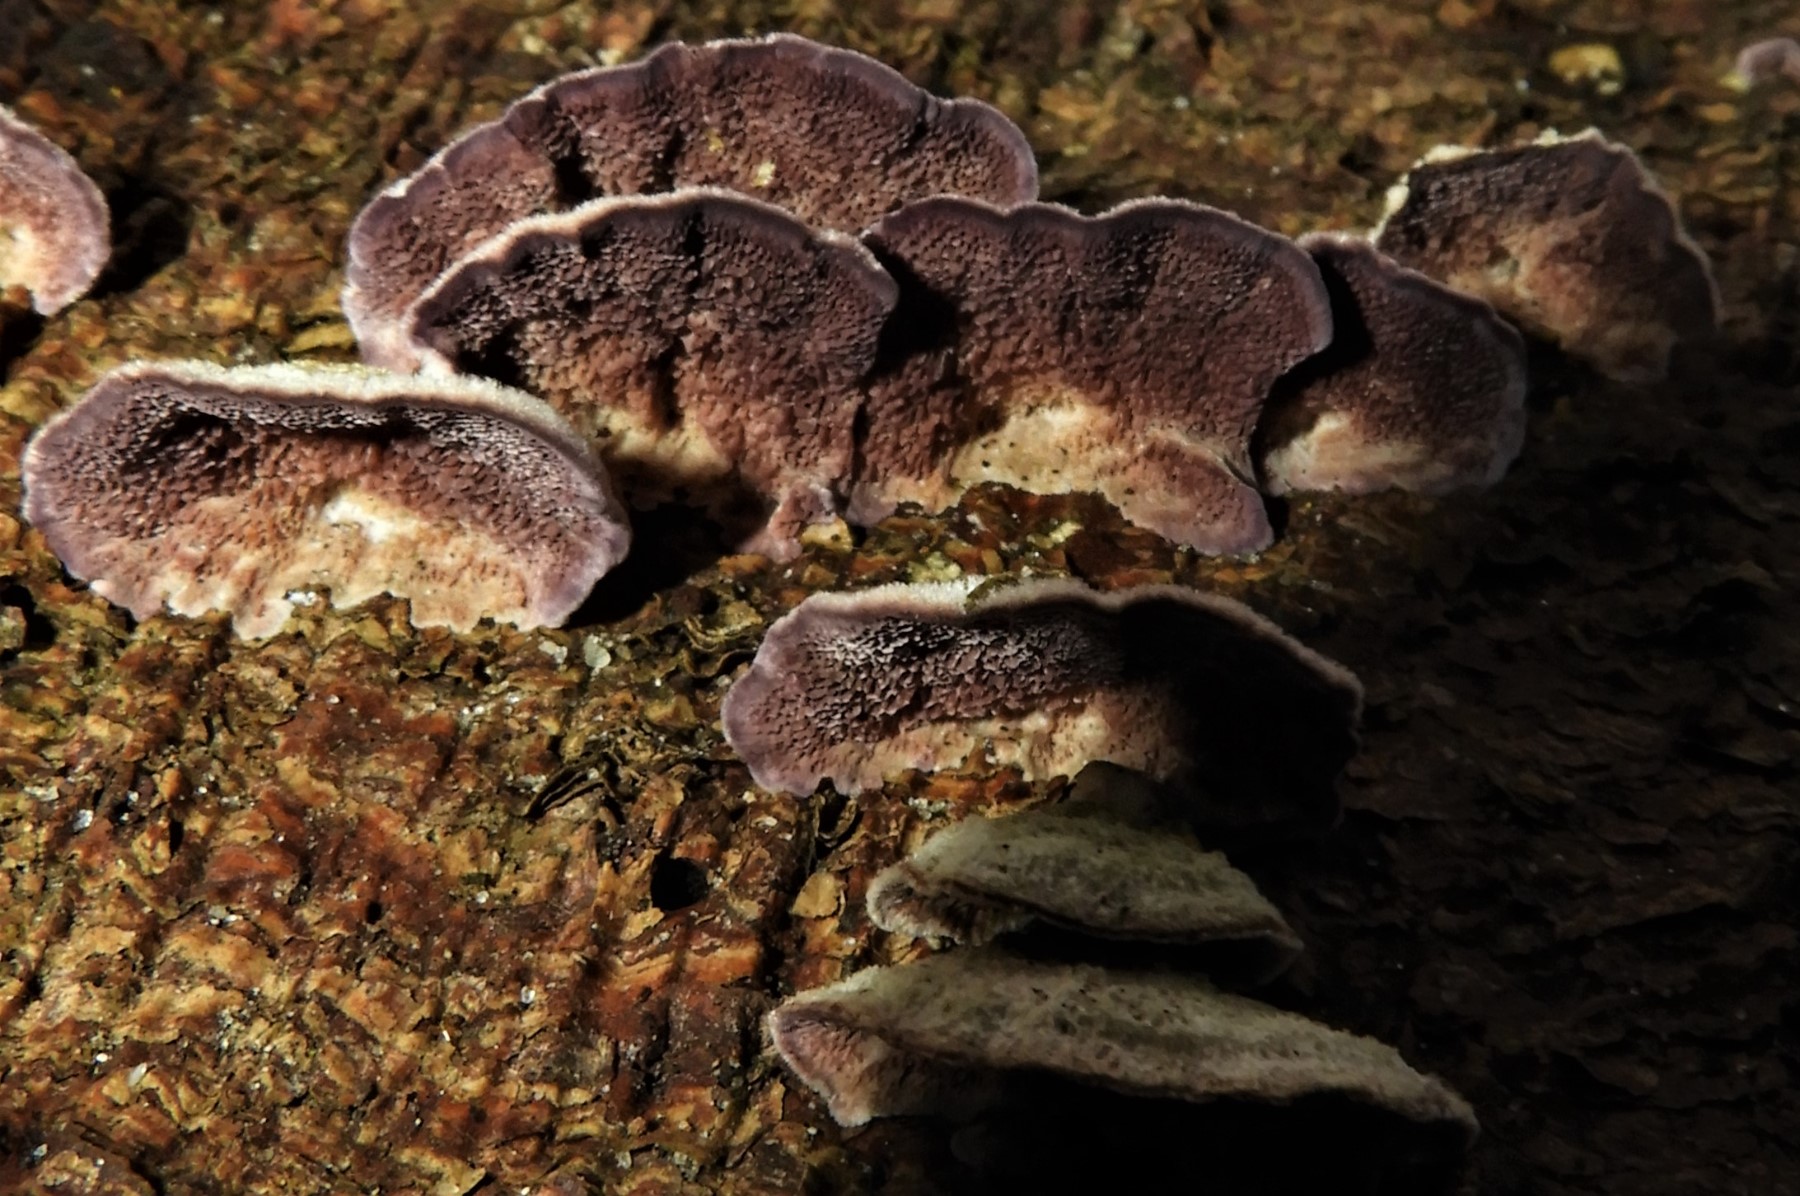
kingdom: Fungi
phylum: Basidiomycota
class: Agaricomycetes
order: Hymenochaetales
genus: Trichaptum
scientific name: Trichaptum fuscoviolaceum
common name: tandet violporesvamp
